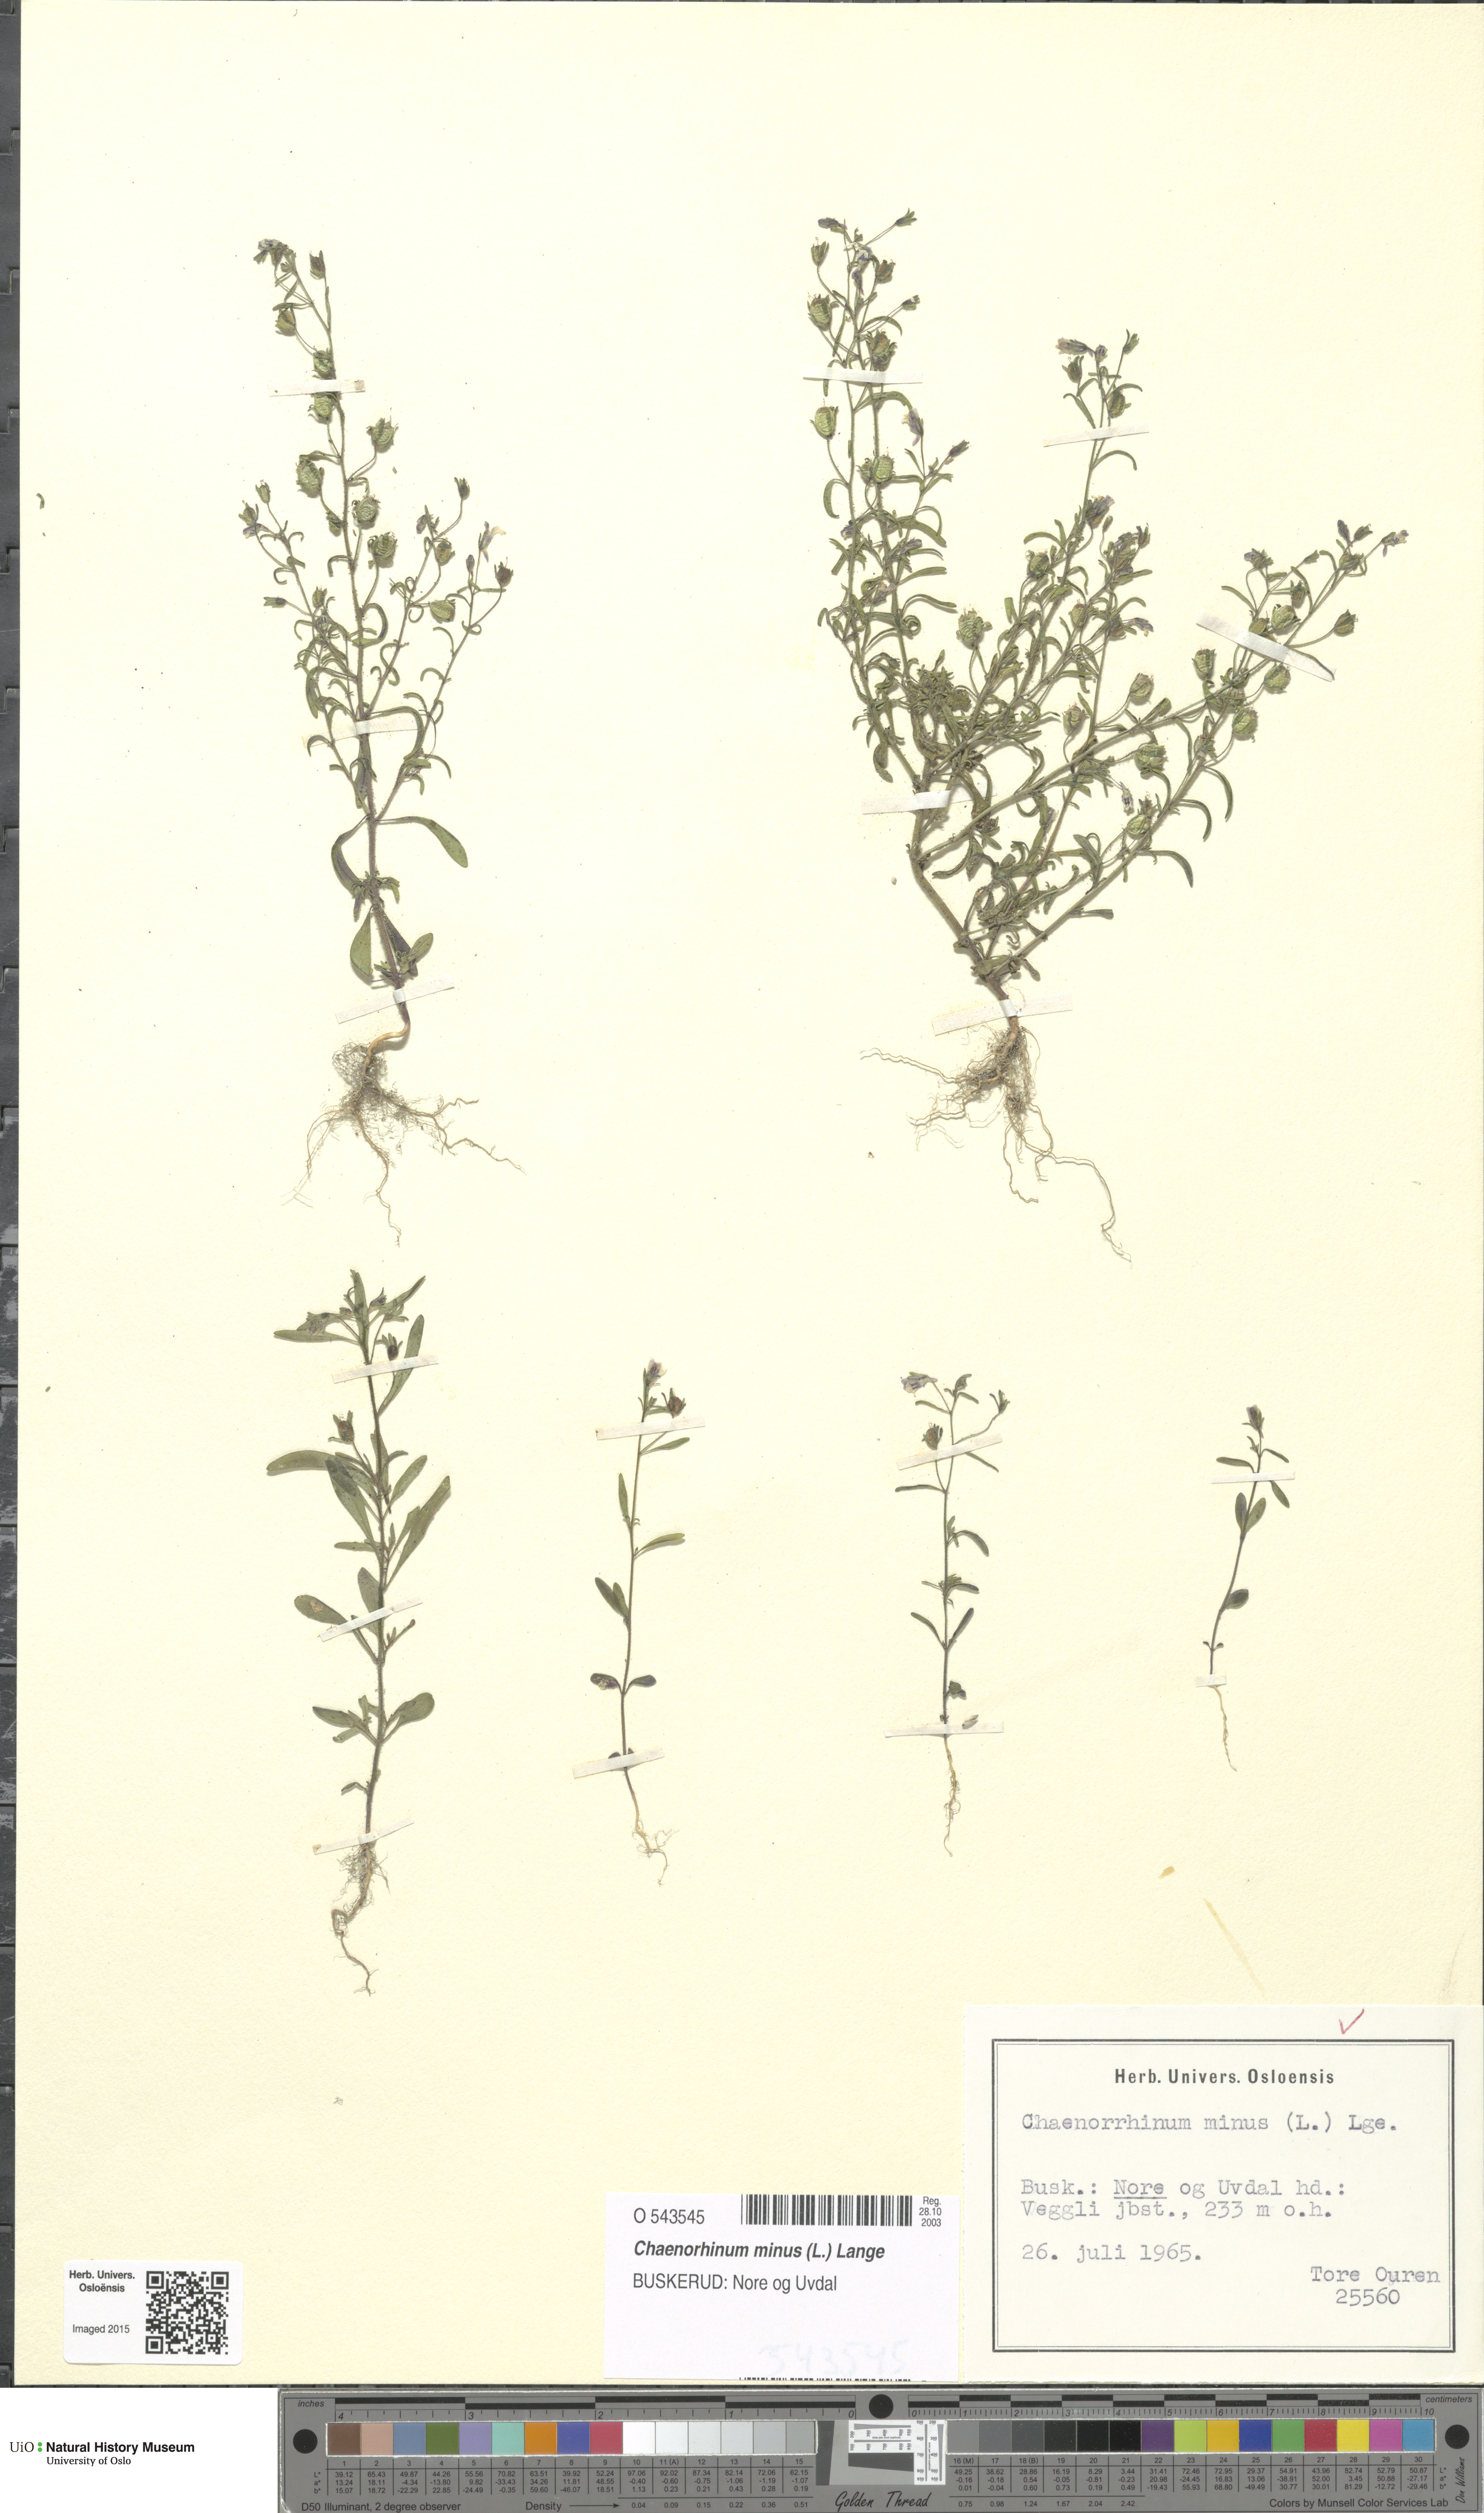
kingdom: Plantae
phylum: Tracheophyta
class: Magnoliopsida
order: Lamiales
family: Plantaginaceae
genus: Chaenorhinum
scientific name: Chaenorhinum minus
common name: Dwarf snapdragon
